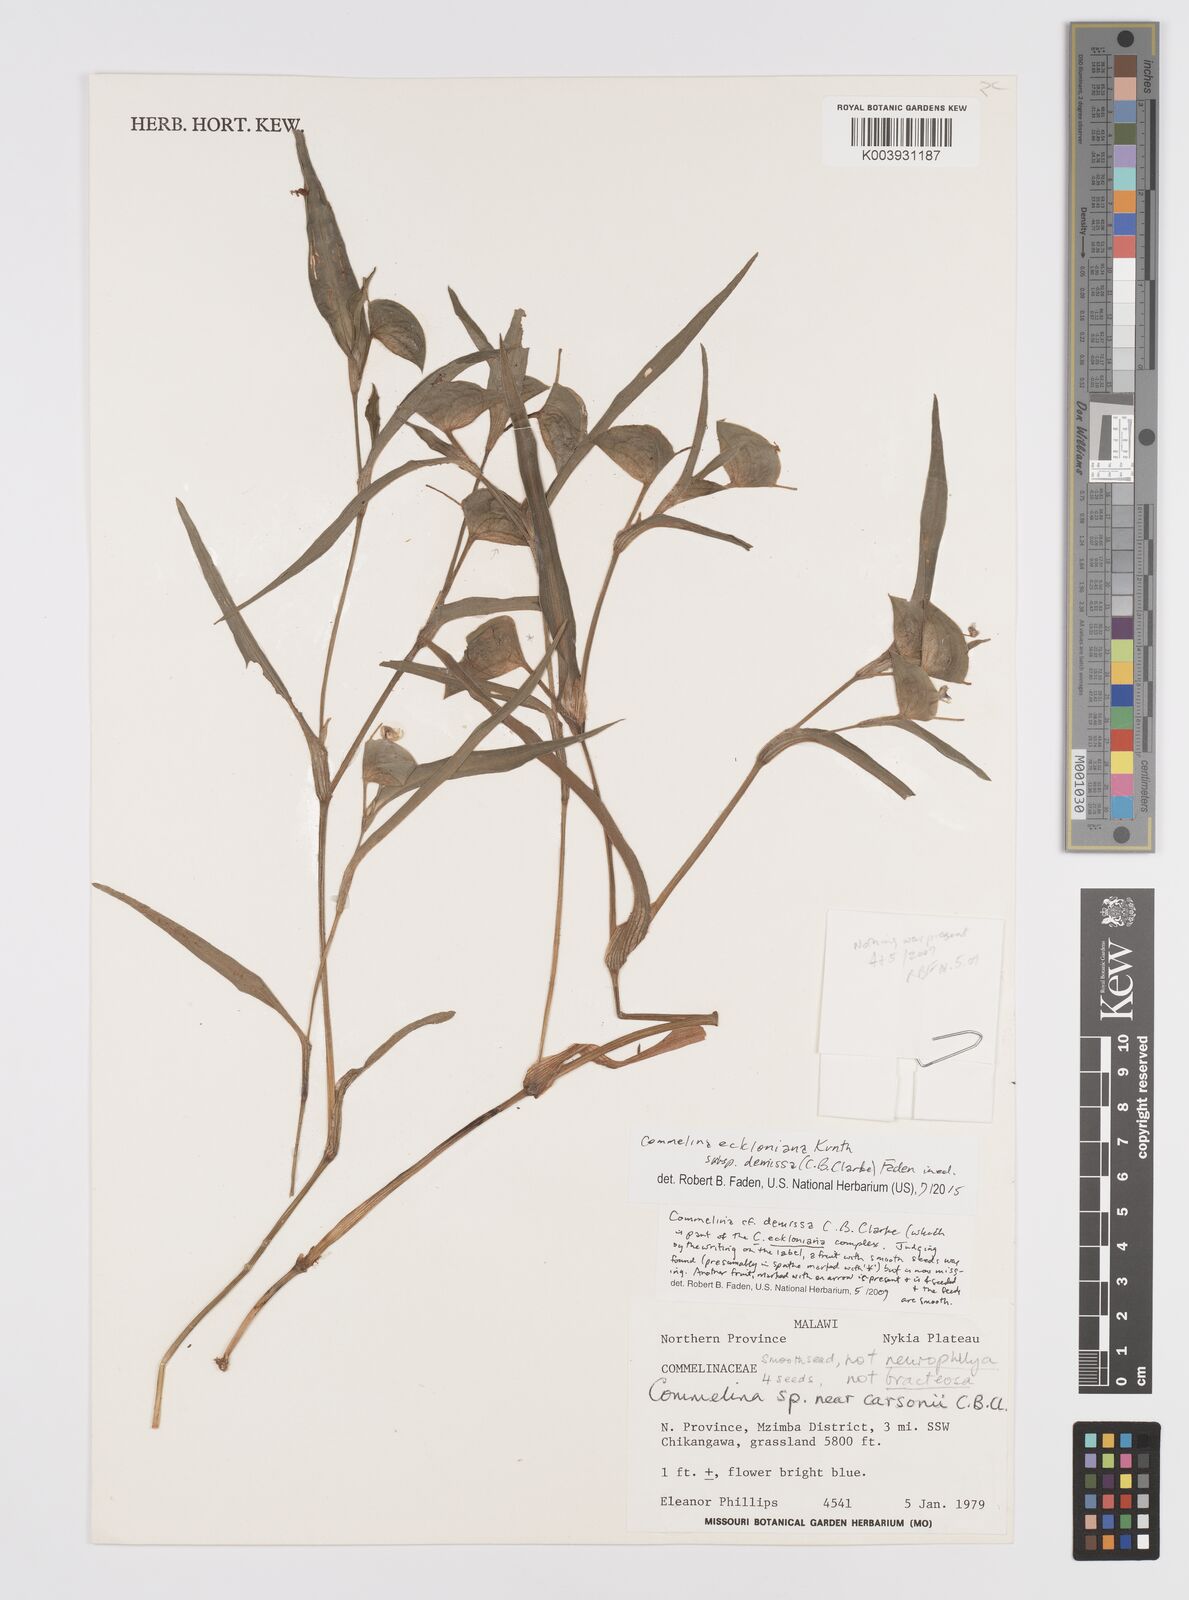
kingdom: Plantae
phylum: Tracheophyta
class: Liliopsida
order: Commelinales
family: Commelinaceae
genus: Commelina
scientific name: Commelina eckloniana
